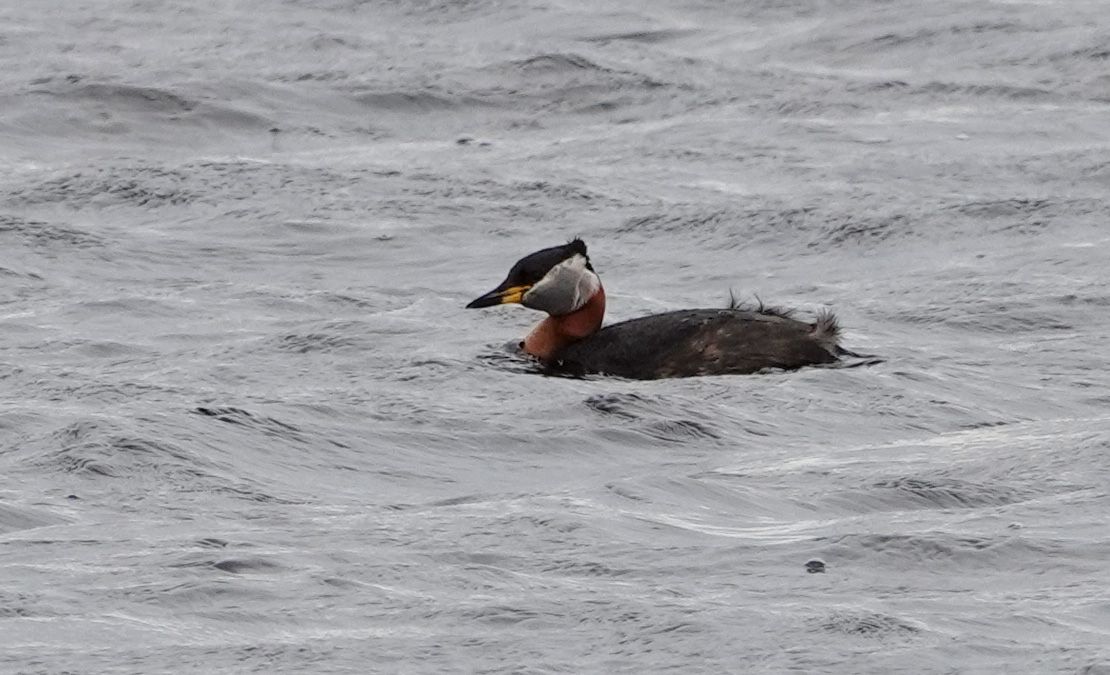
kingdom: Animalia
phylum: Chordata
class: Aves
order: Podicipediformes
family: Podicipedidae
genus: Podiceps
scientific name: Podiceps grisegena
